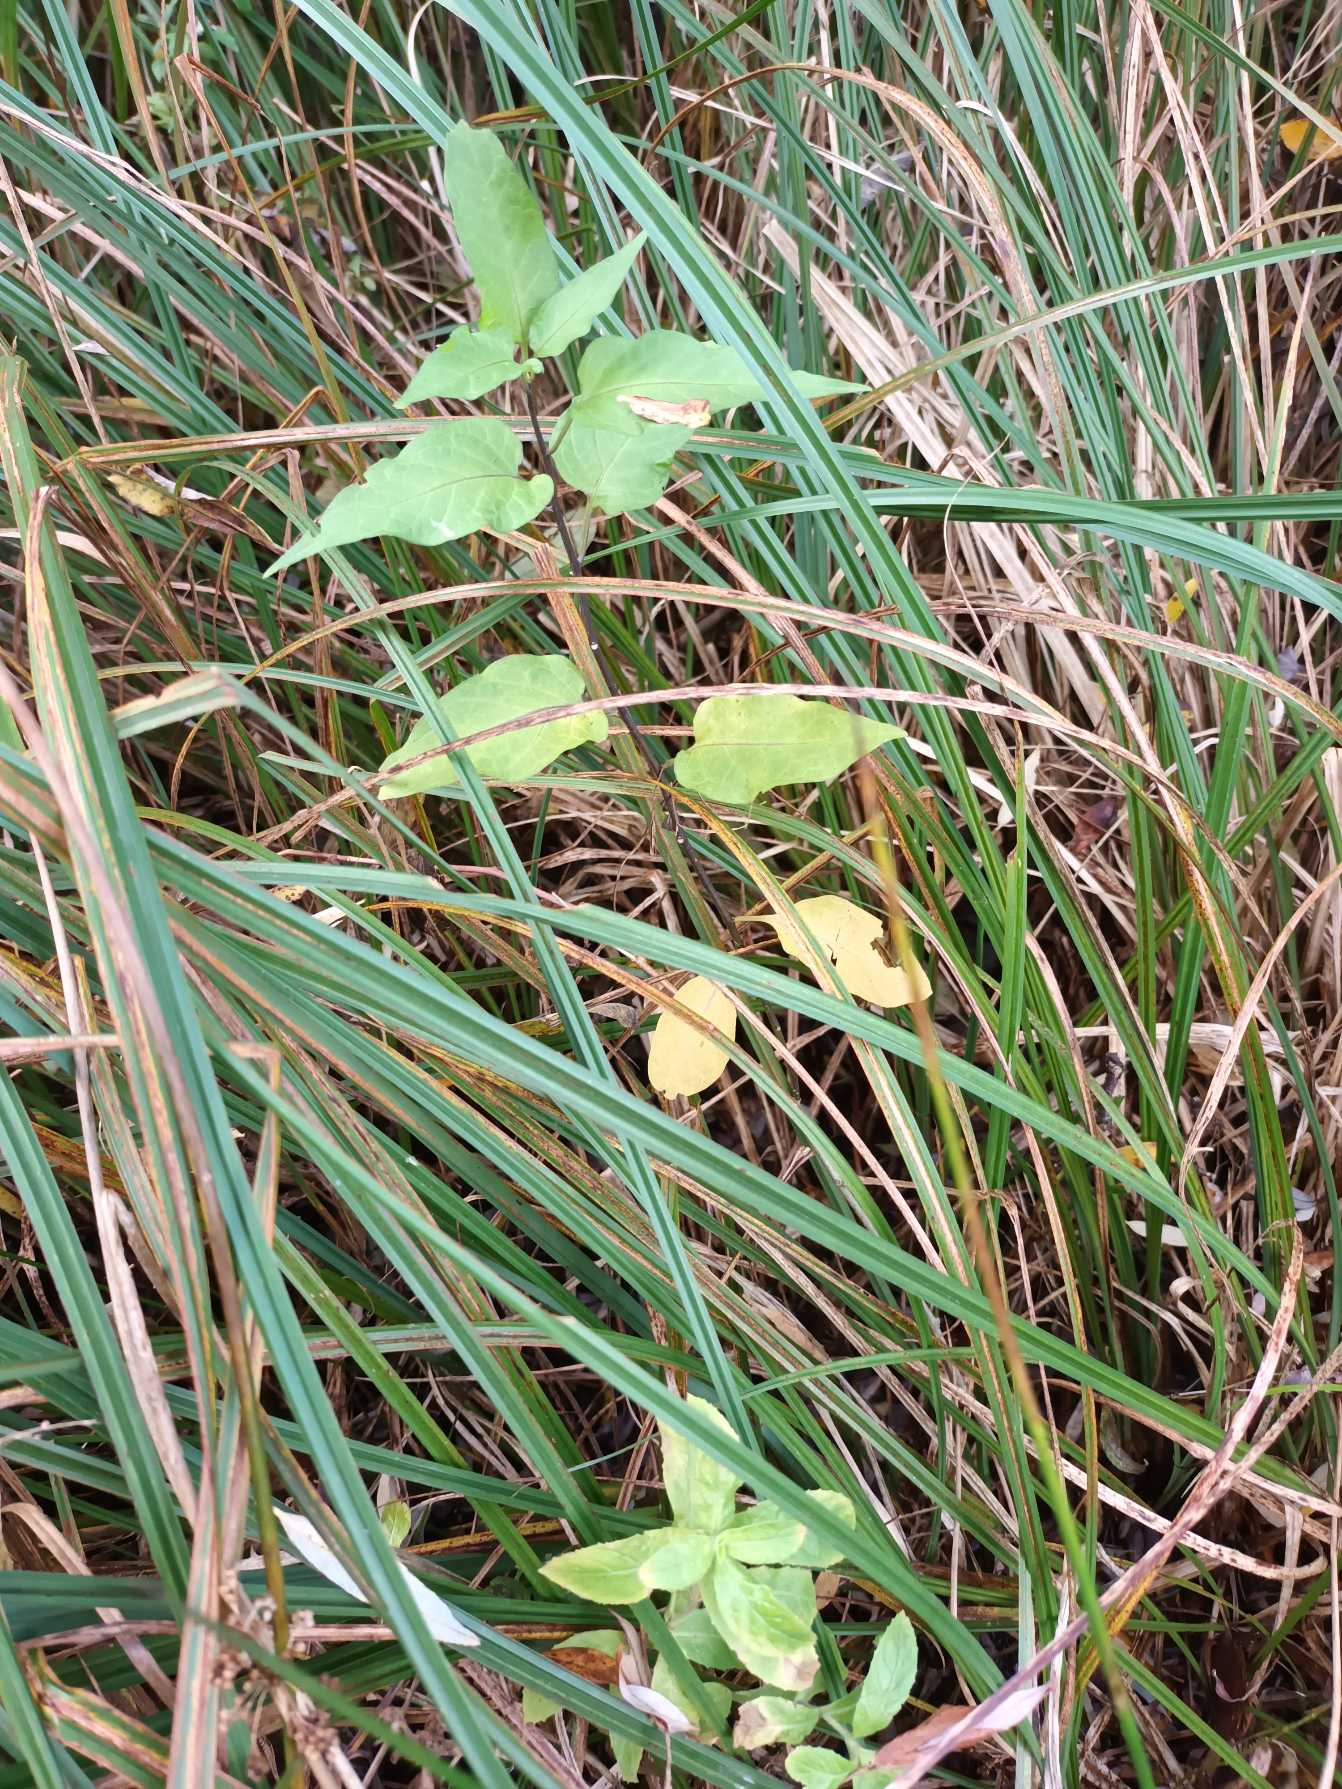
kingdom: Plantae
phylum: Tracheophyta
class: Magnoliopsida
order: Solanales
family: Solanaceae
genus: Solanum
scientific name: Solanum dulcamara
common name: Bittersød natskygge
